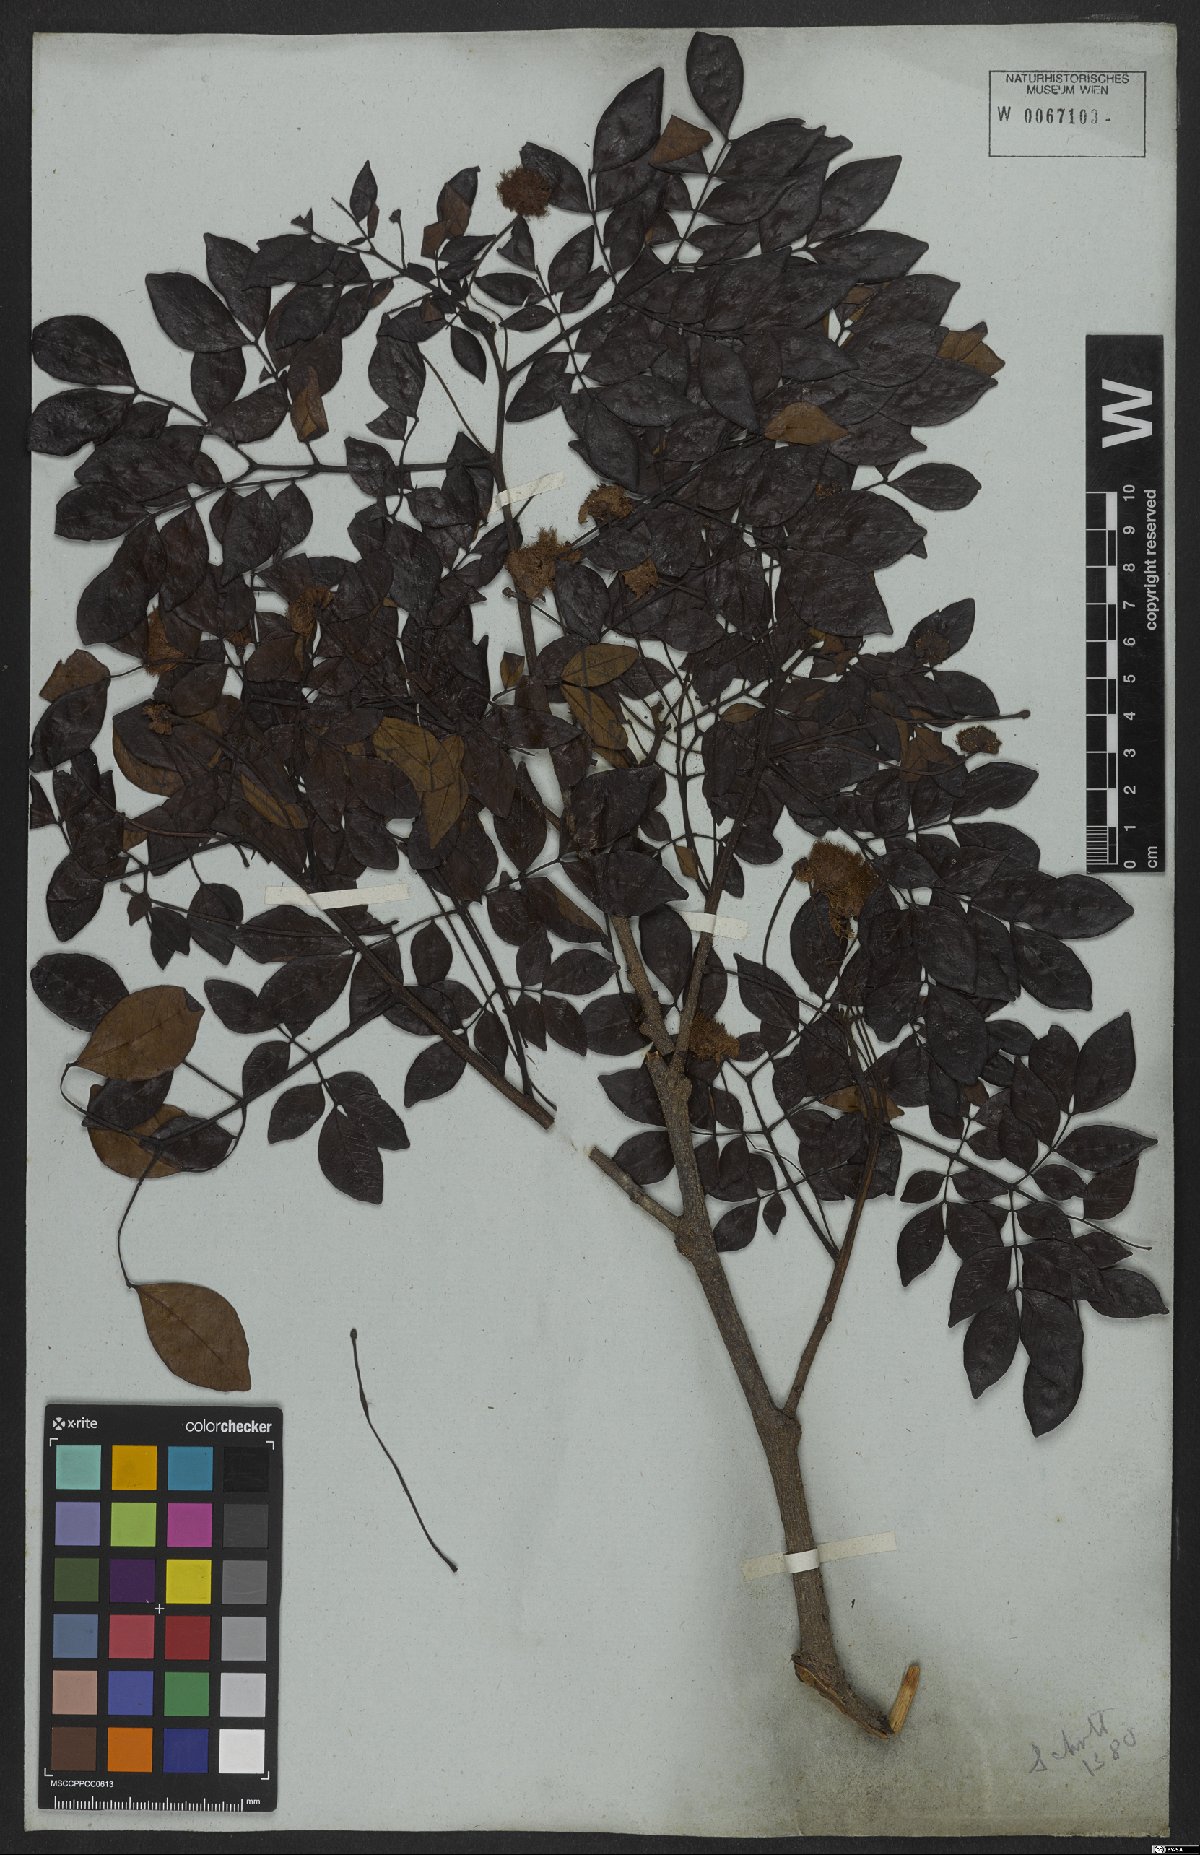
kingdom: Plantae
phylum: Tracheophyta
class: Magnoliopsida
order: Fabales
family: Fabaceae
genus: Abarema
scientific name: Abarema cochliacarpos
